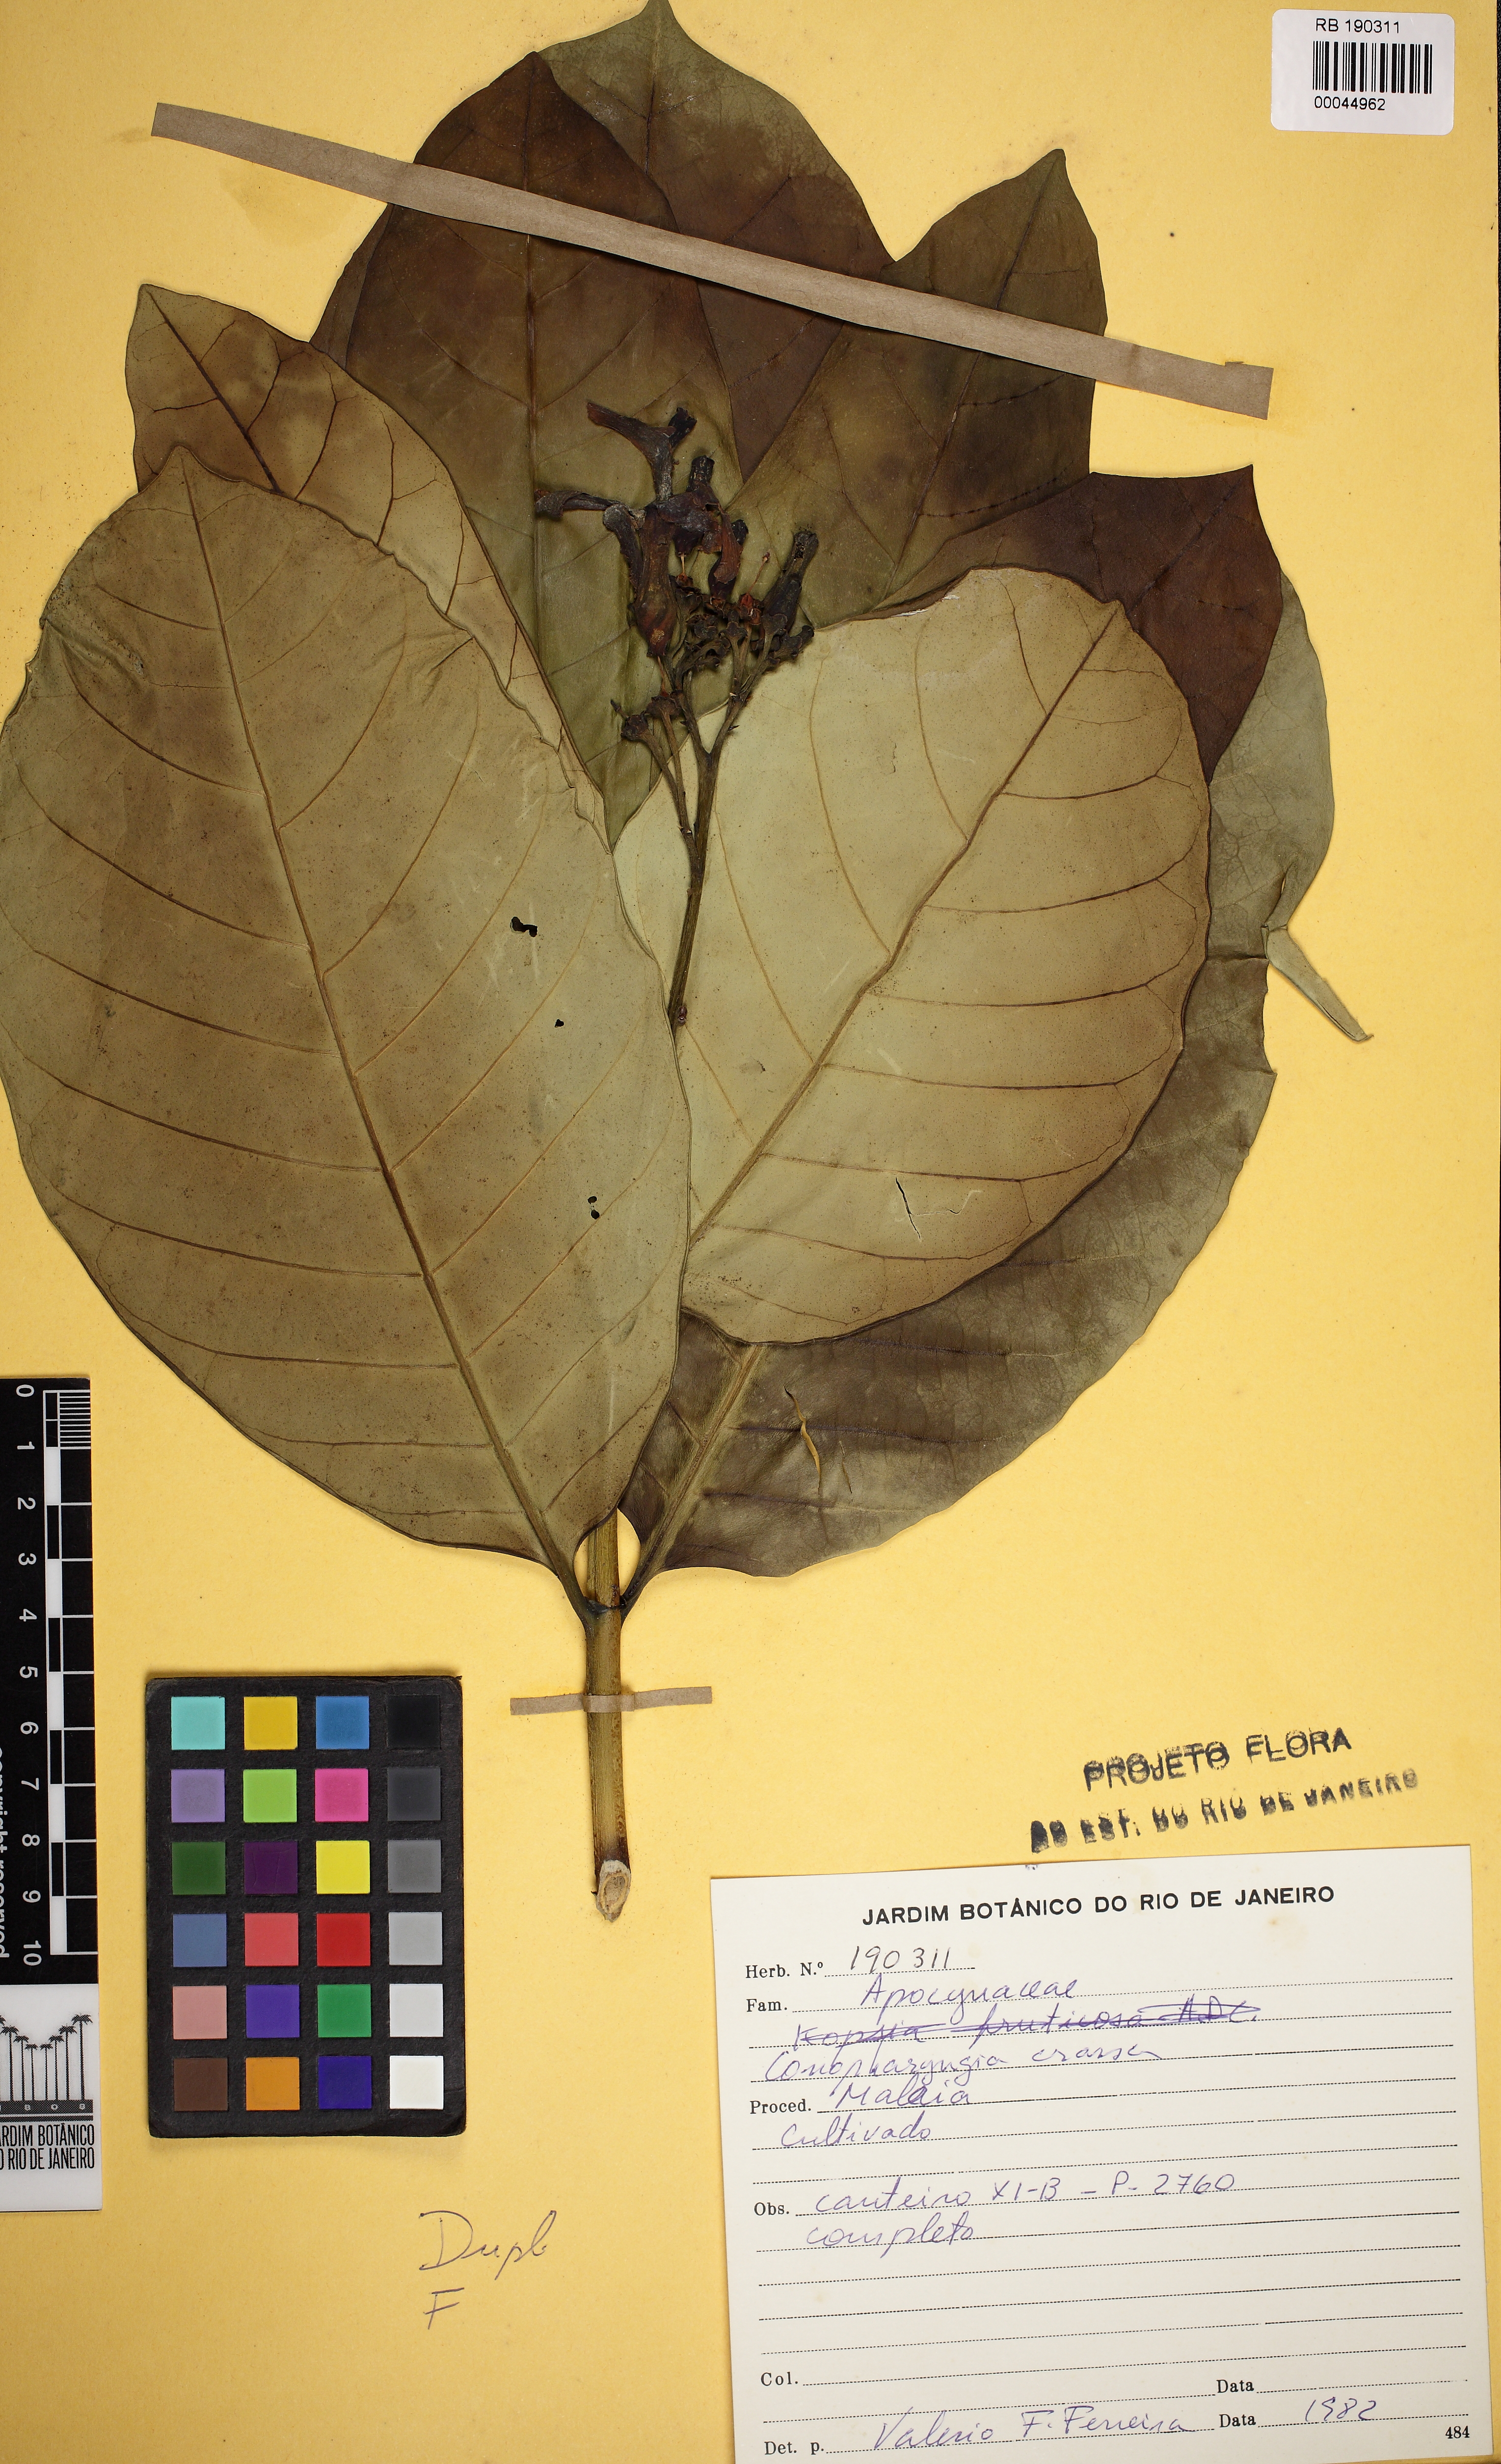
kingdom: Plantae
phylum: Tracheophyta
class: Magnoliopsida
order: Gentianales
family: Apocynaceae
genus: Tabernaemontana
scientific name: Tabernaemontana crassa
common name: Adam's-apple-flower
